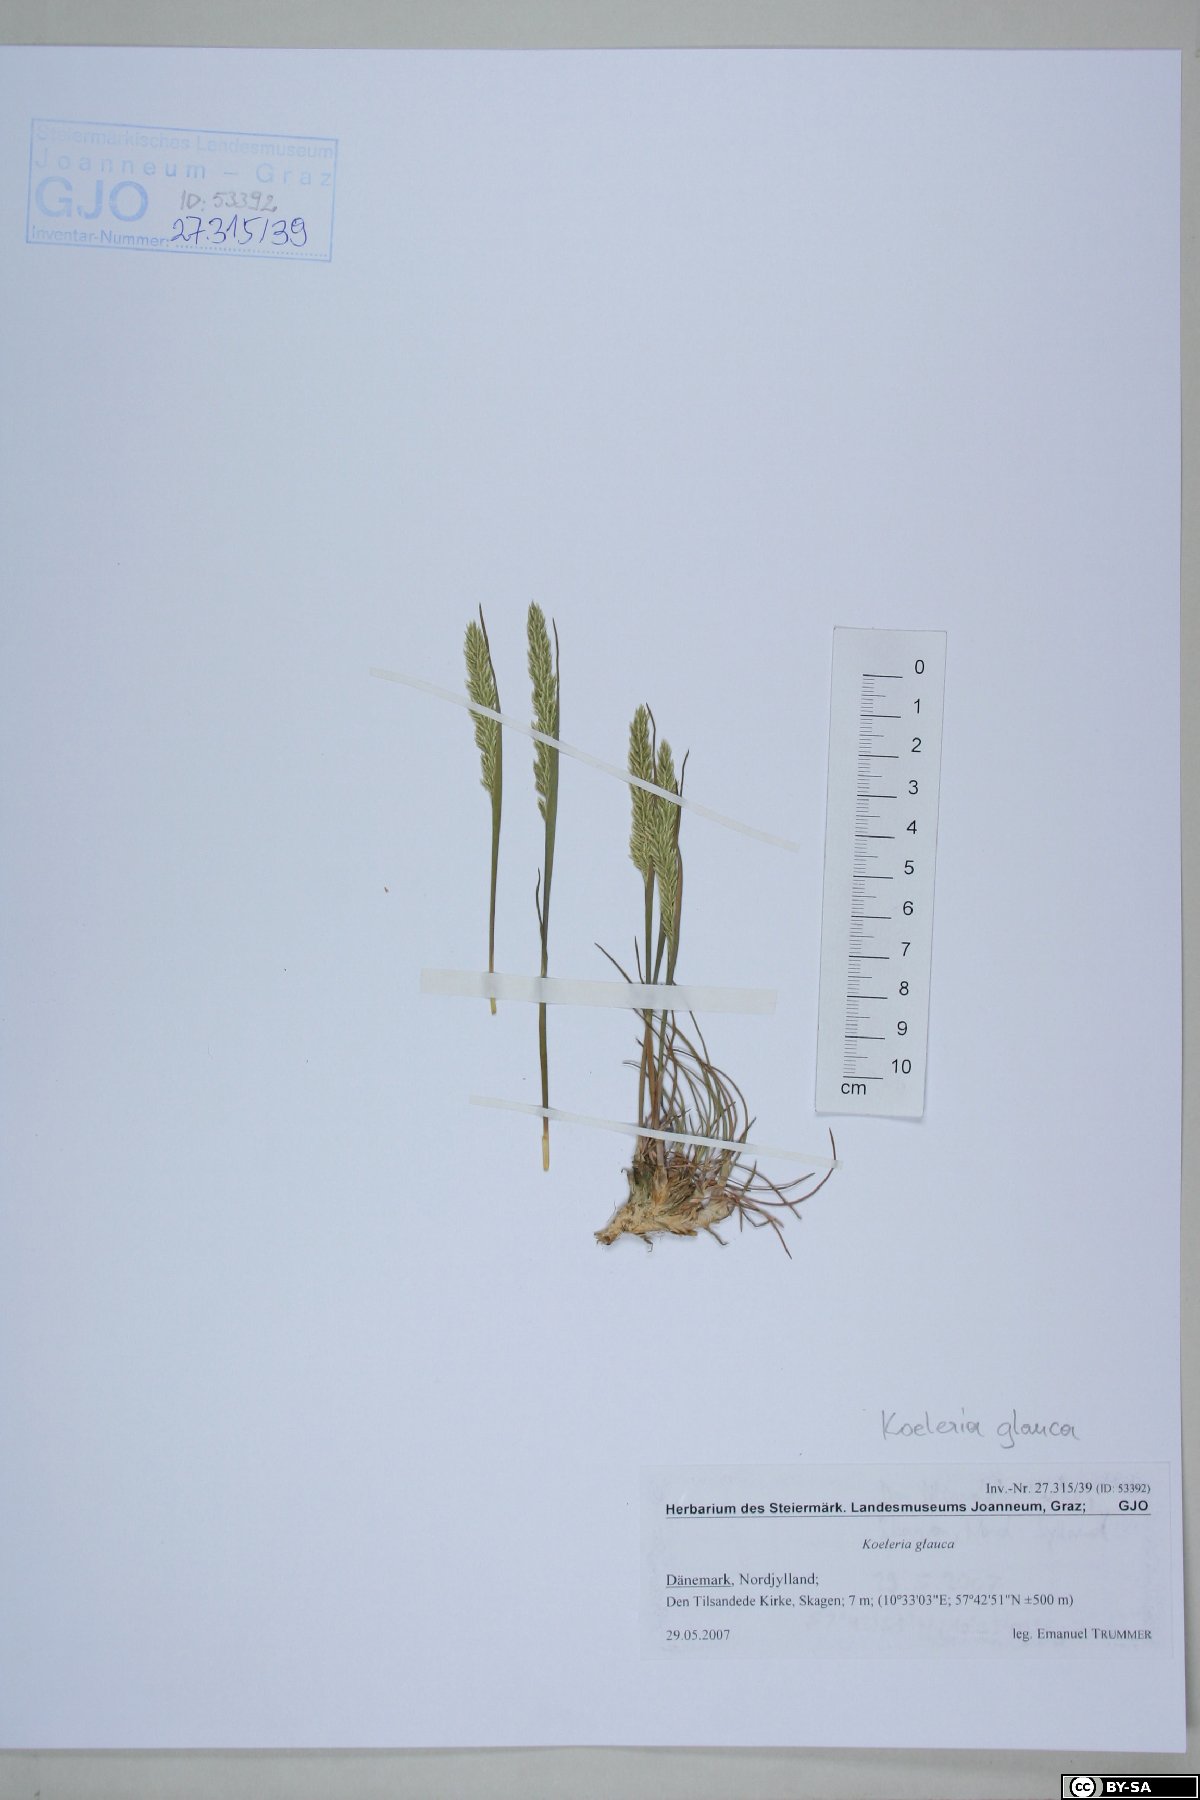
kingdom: Plantae
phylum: Tracheophyta
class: Liliopsida
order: Poales
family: Poaceae
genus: Koeleria
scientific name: Koeleria glauca
